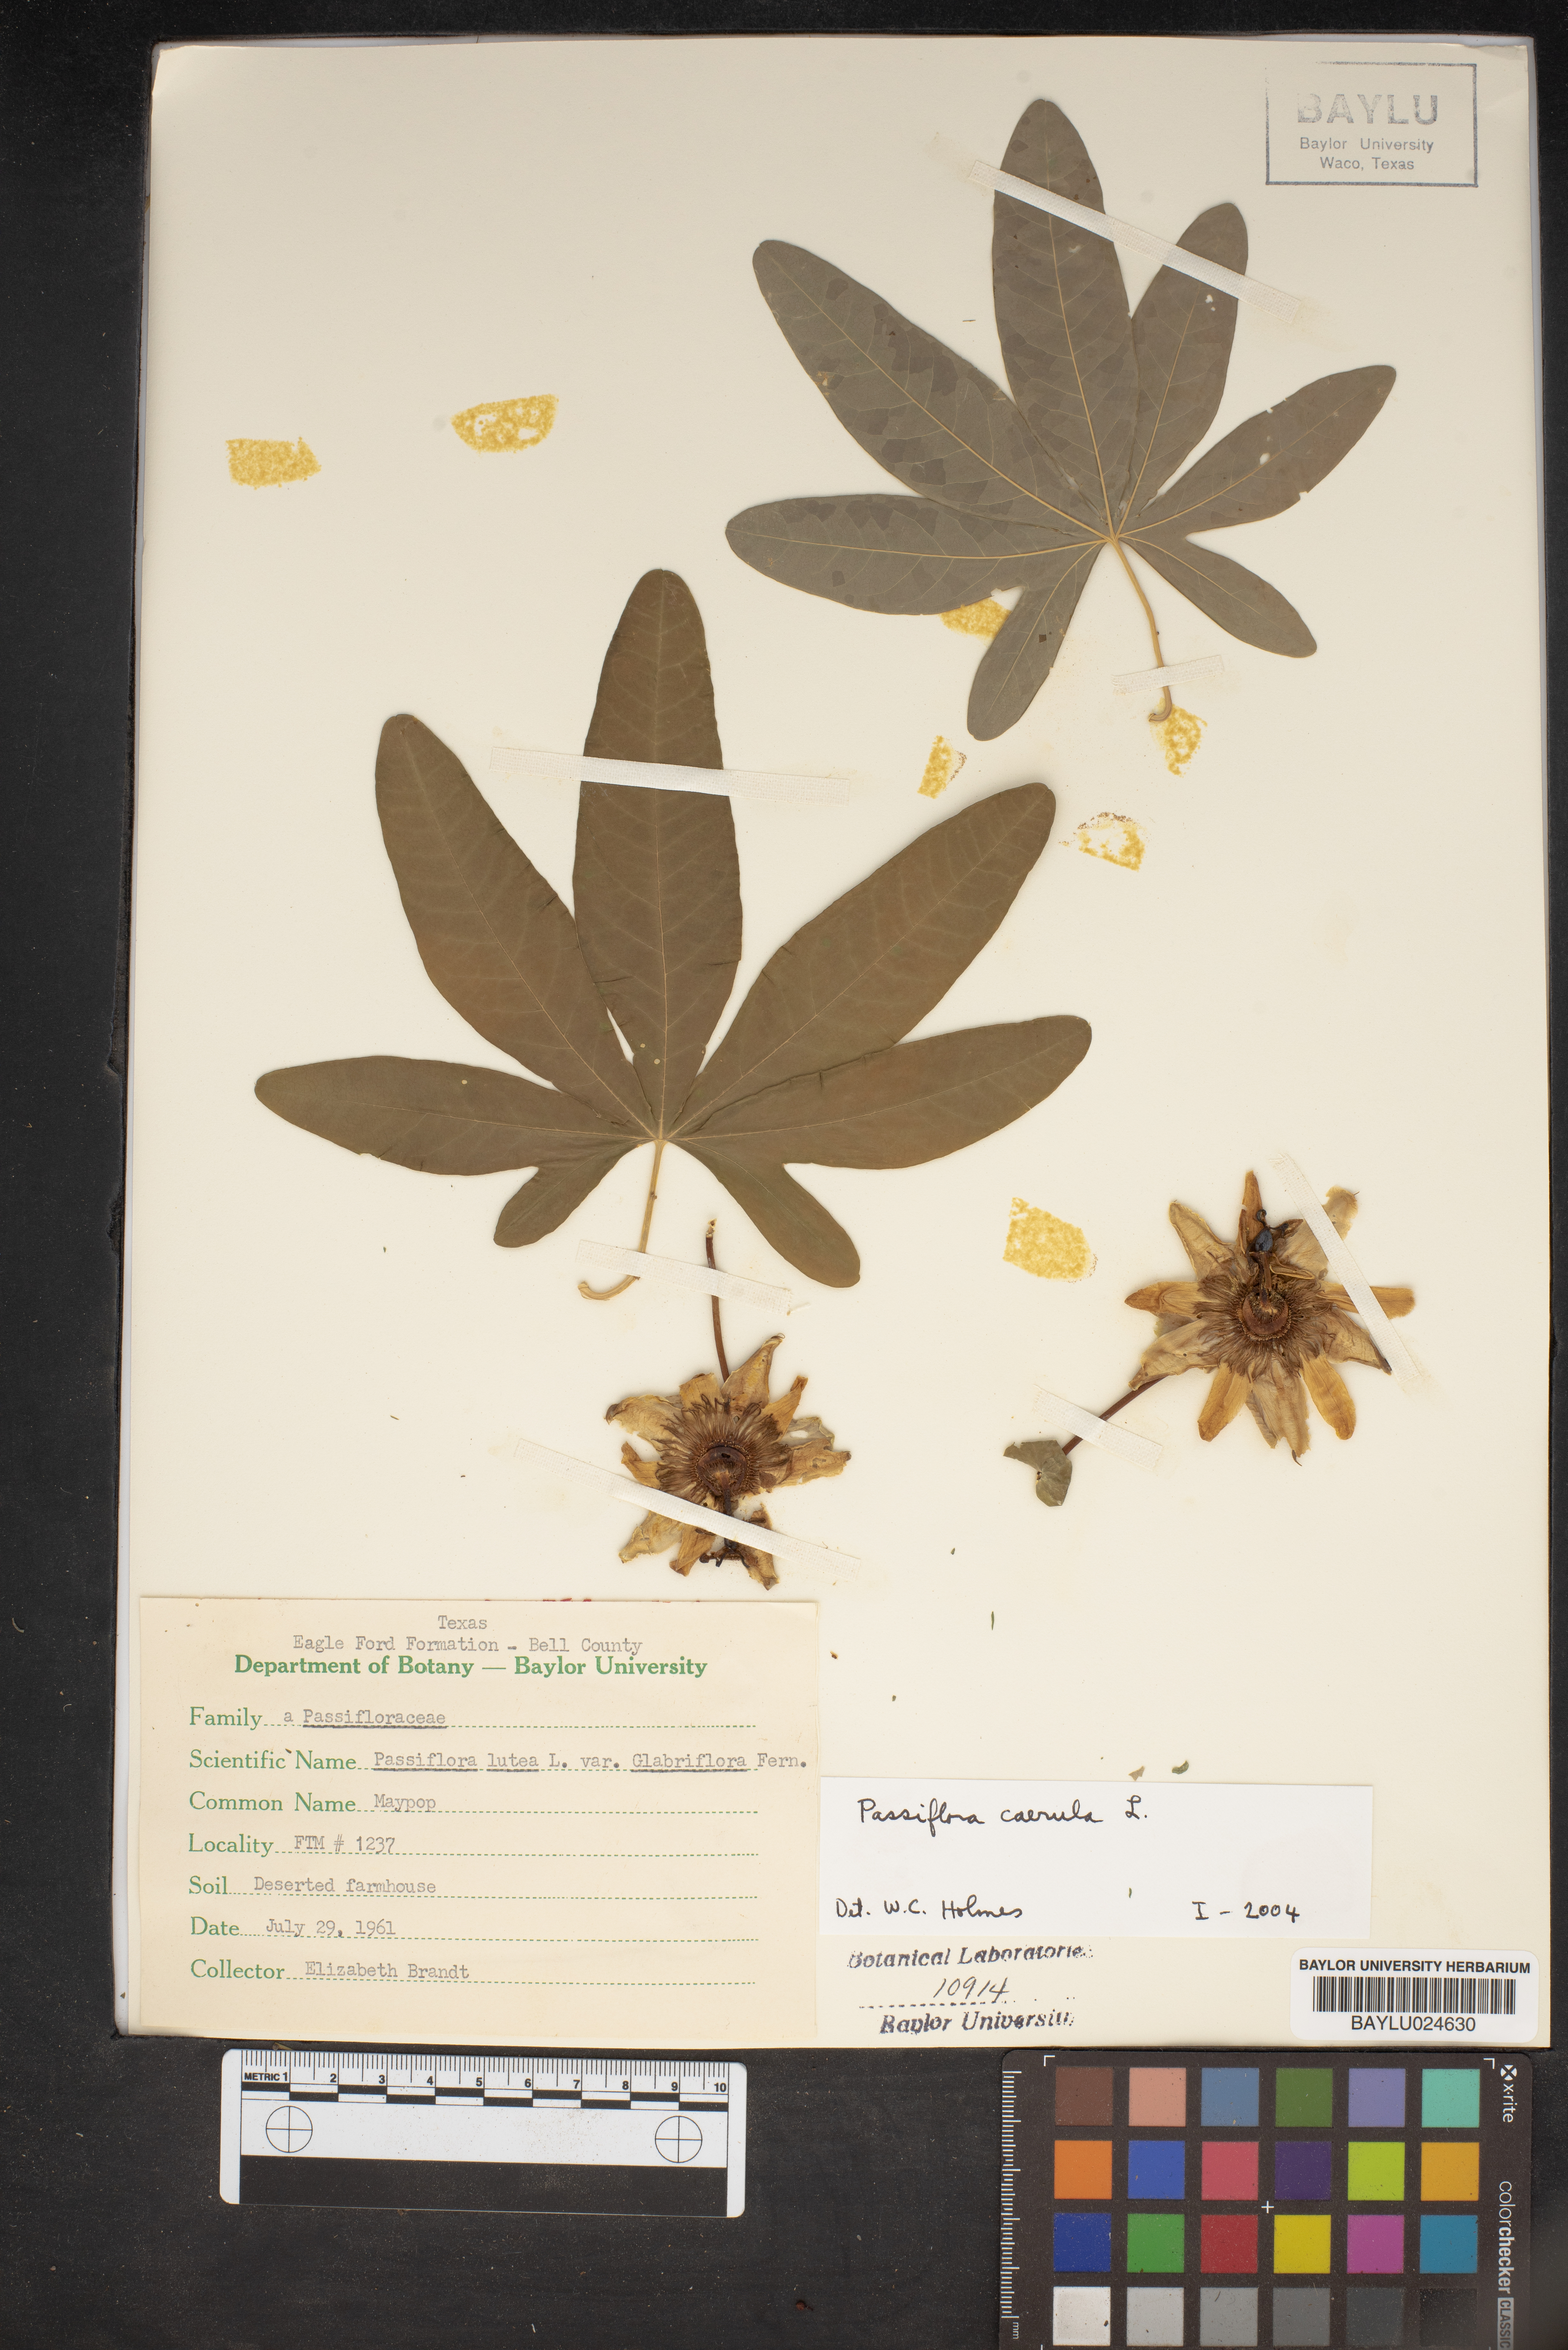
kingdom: Plantae
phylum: Tracheophyta
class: Magnoliopsida
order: Malpighiales
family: Passifloraceae
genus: Passiflora
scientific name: Passiflora lutea
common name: Yellow passionflower
